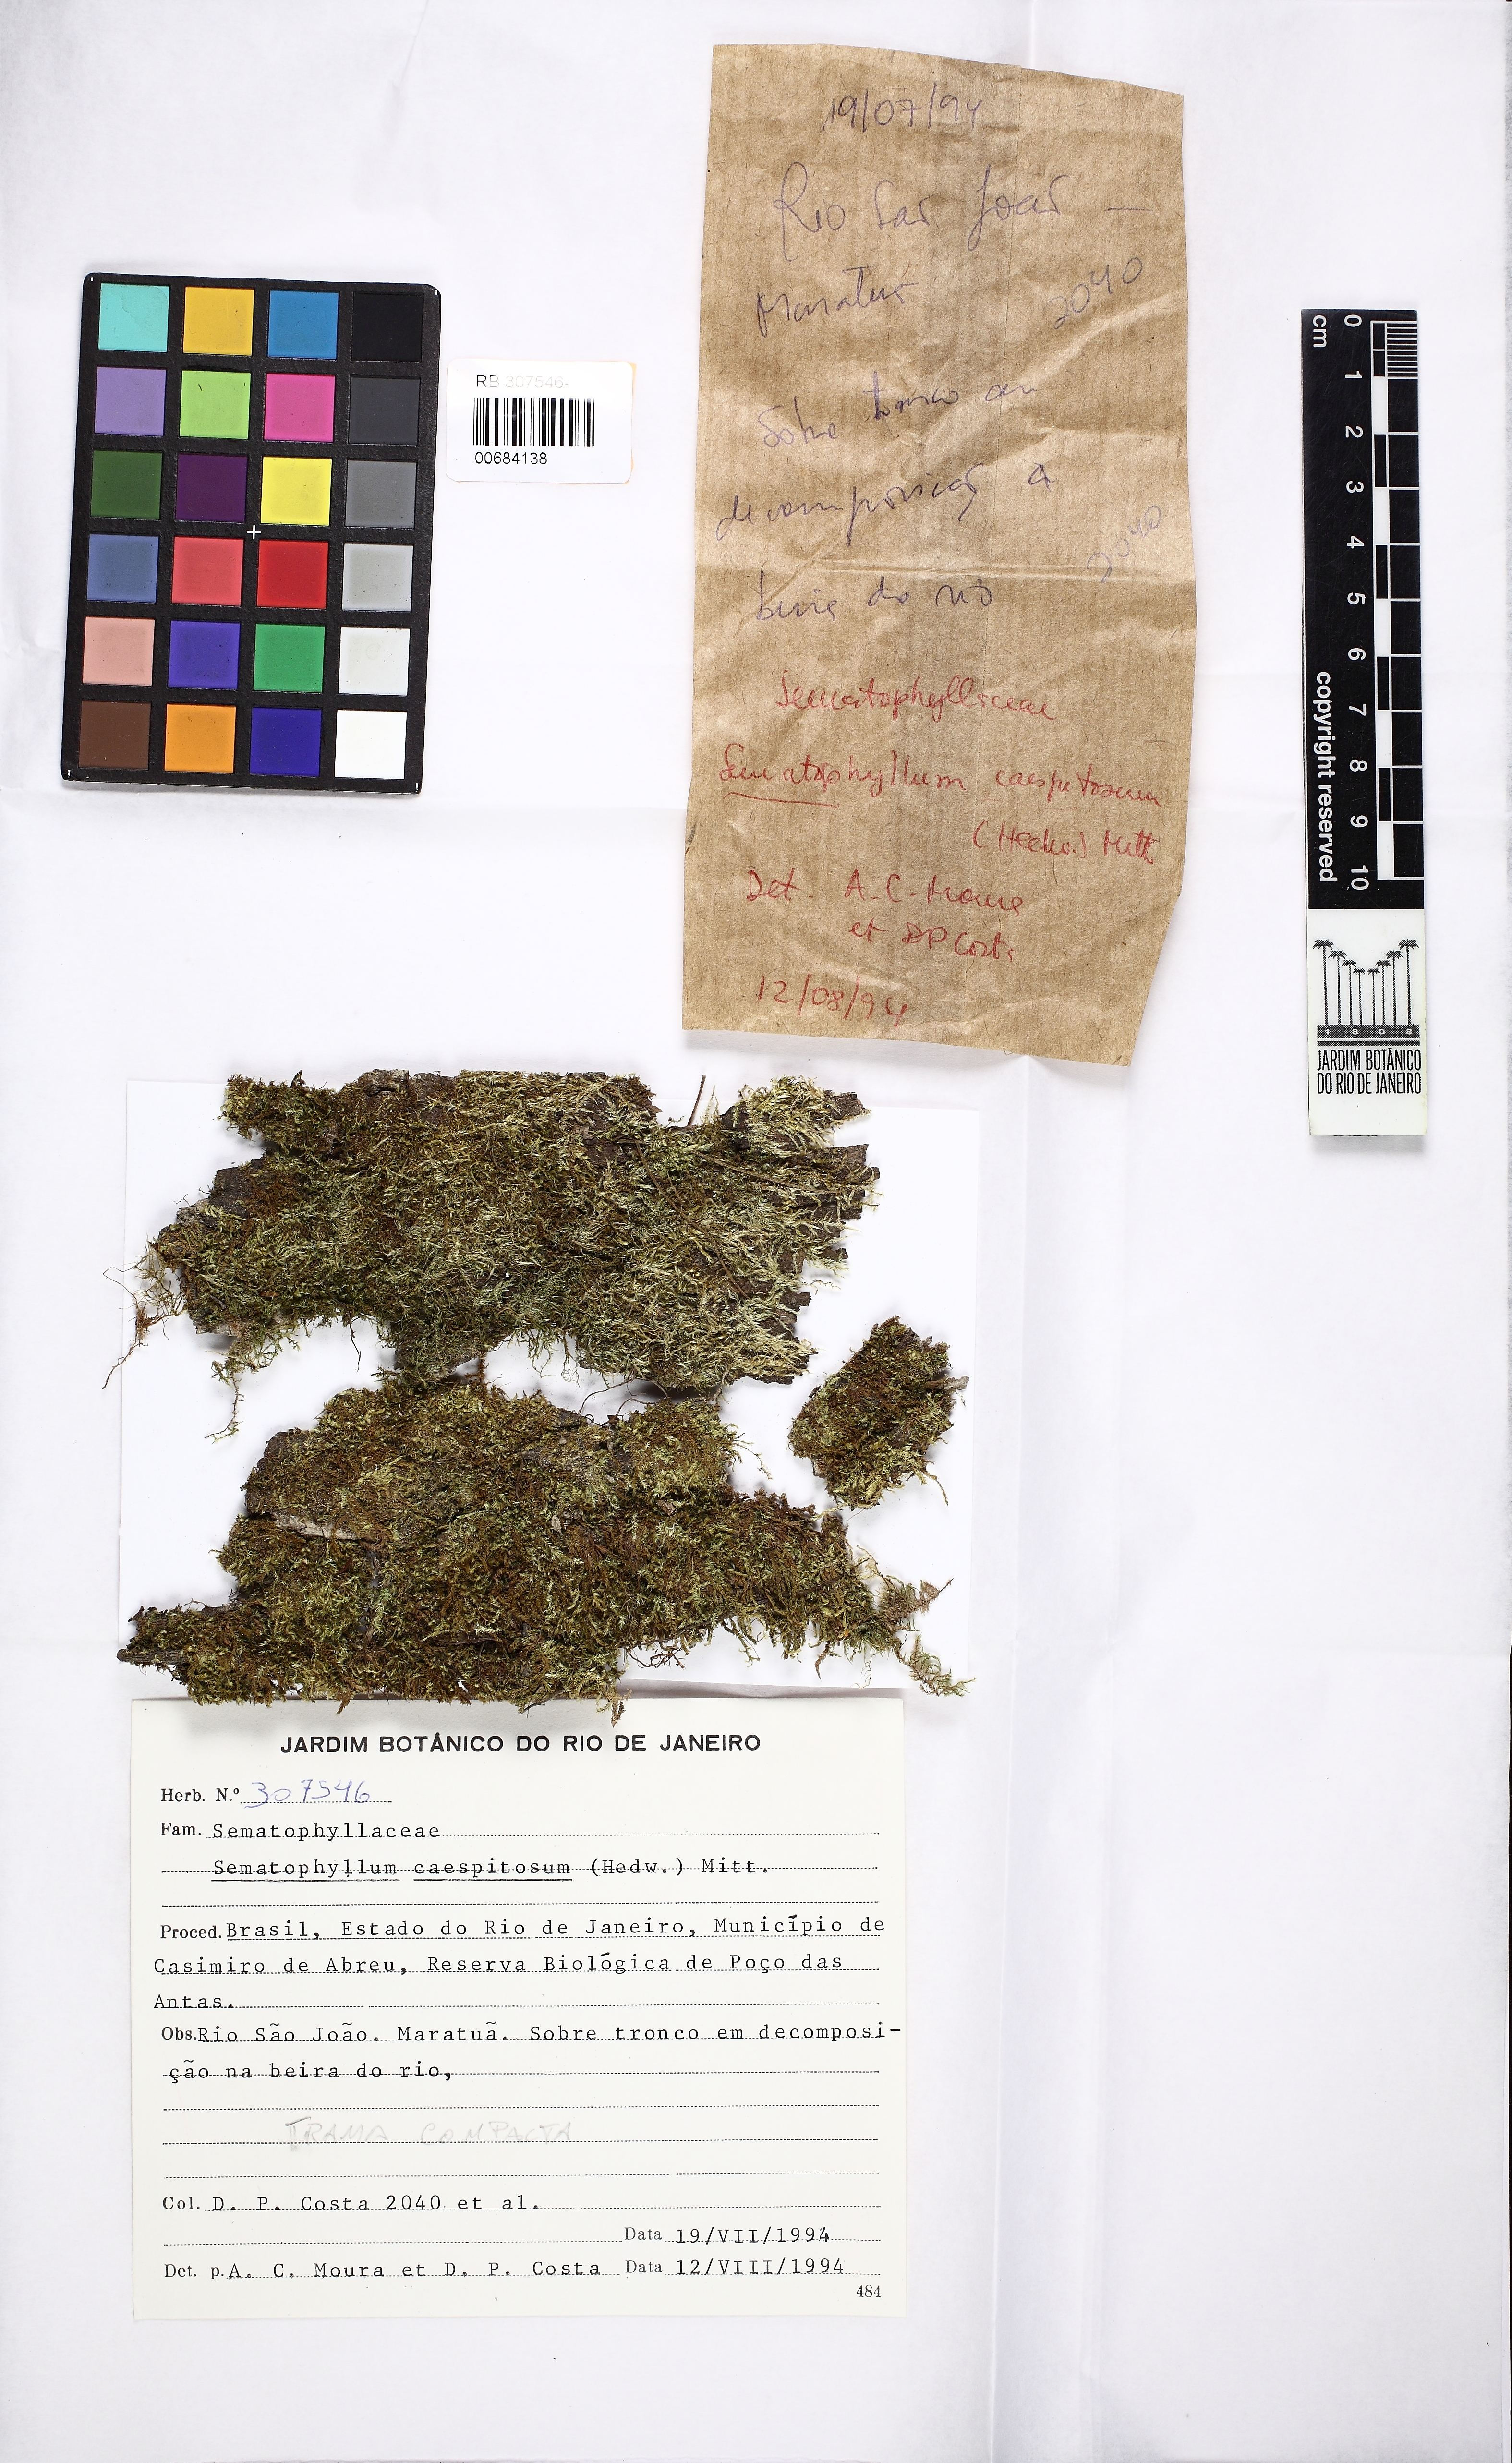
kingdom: Plantae
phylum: Bryophyta
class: Bryopsida
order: Hypnales
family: Sematophyllaceae
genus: Brittonodoxa
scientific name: Brittonodoxa subpinnata
